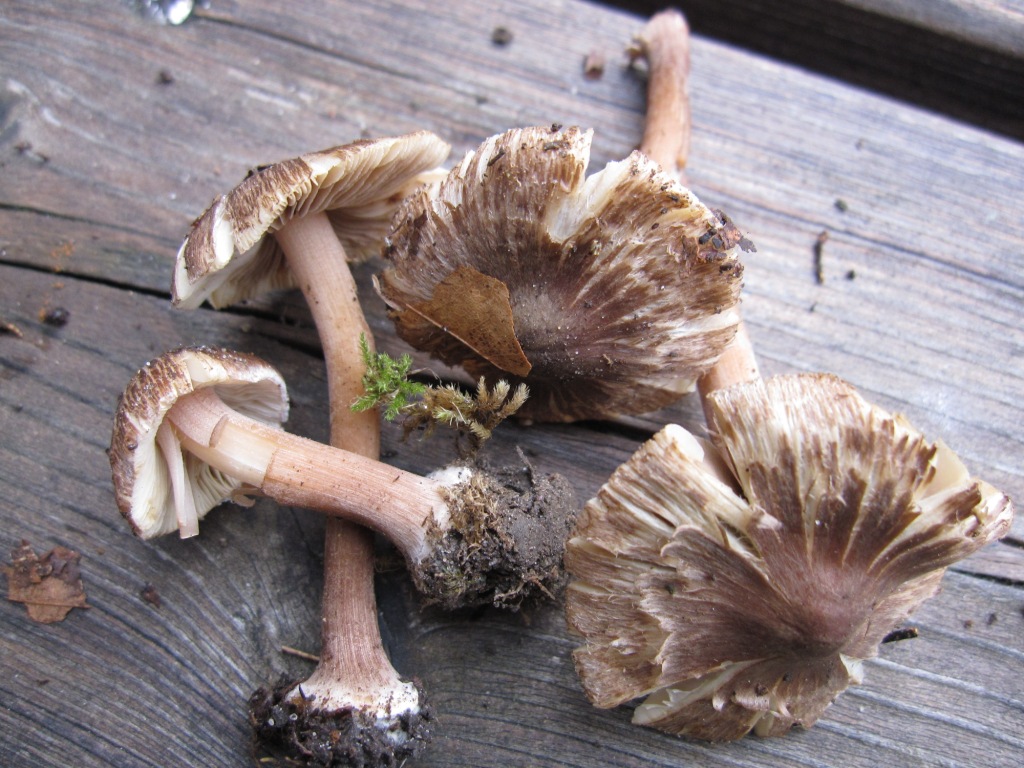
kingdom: Fungi
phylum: Basidiomycota
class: Agaricomycetes
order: Agaricales
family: Inocybaceae
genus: Inocybe
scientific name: Inocybe asterospora
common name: stjernesporet trævlhat
